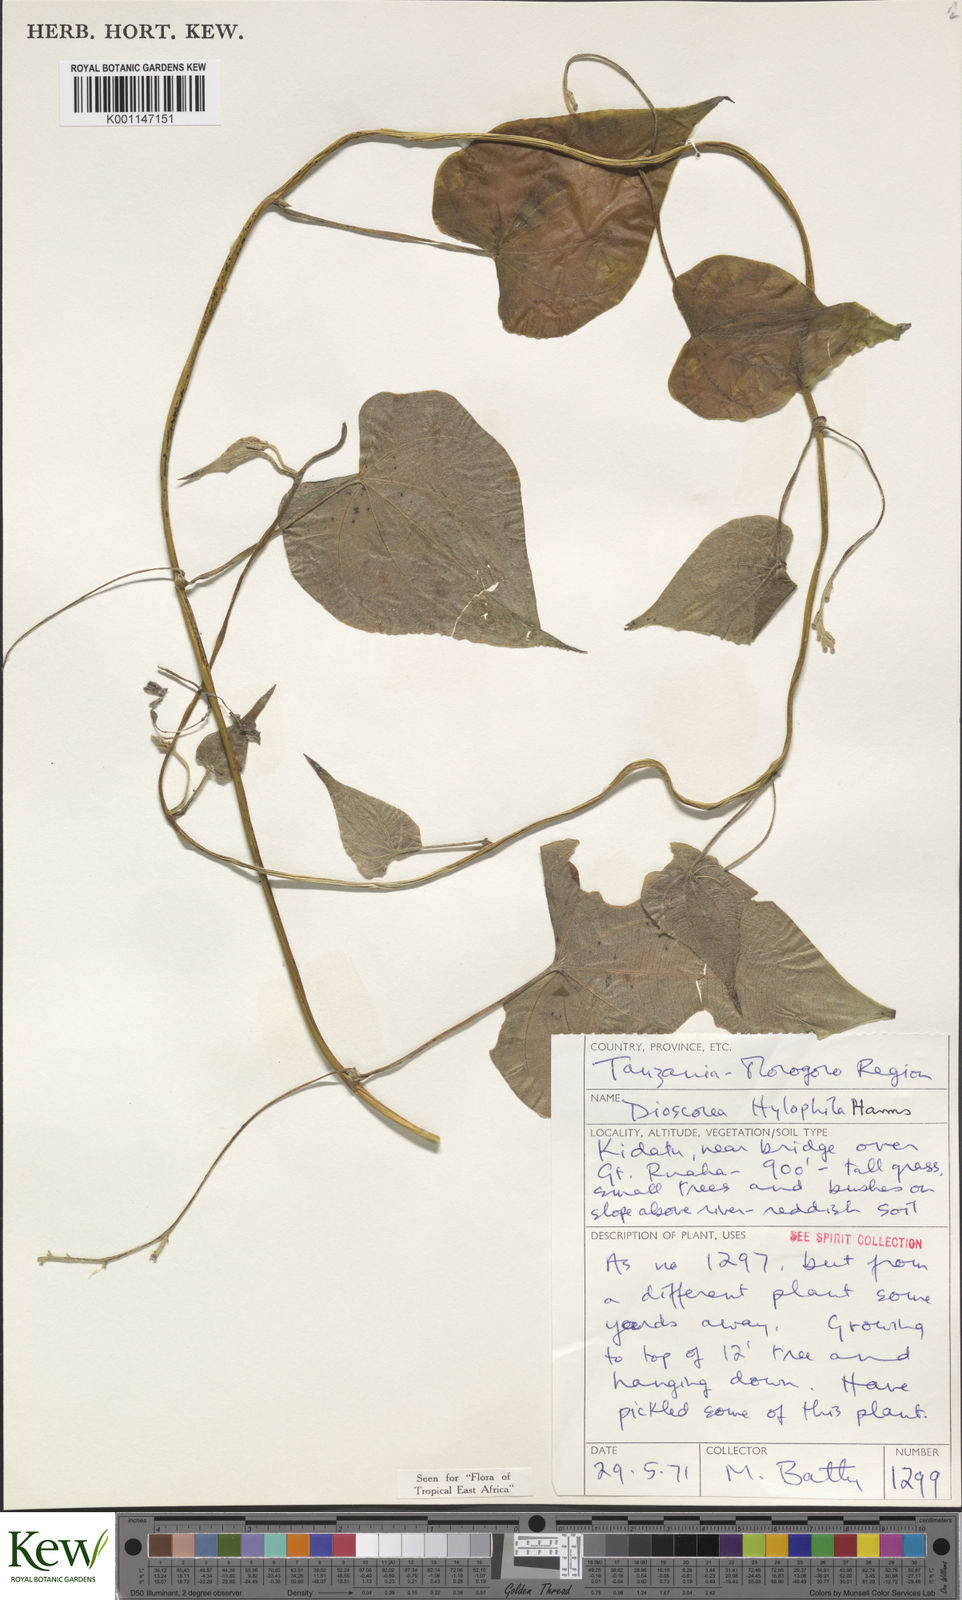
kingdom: Plantae
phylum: Tracheophyta
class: Liliopsida
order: Dioscoreales
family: Dioscoreaceae
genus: Dioscorea
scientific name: Dioscorea
